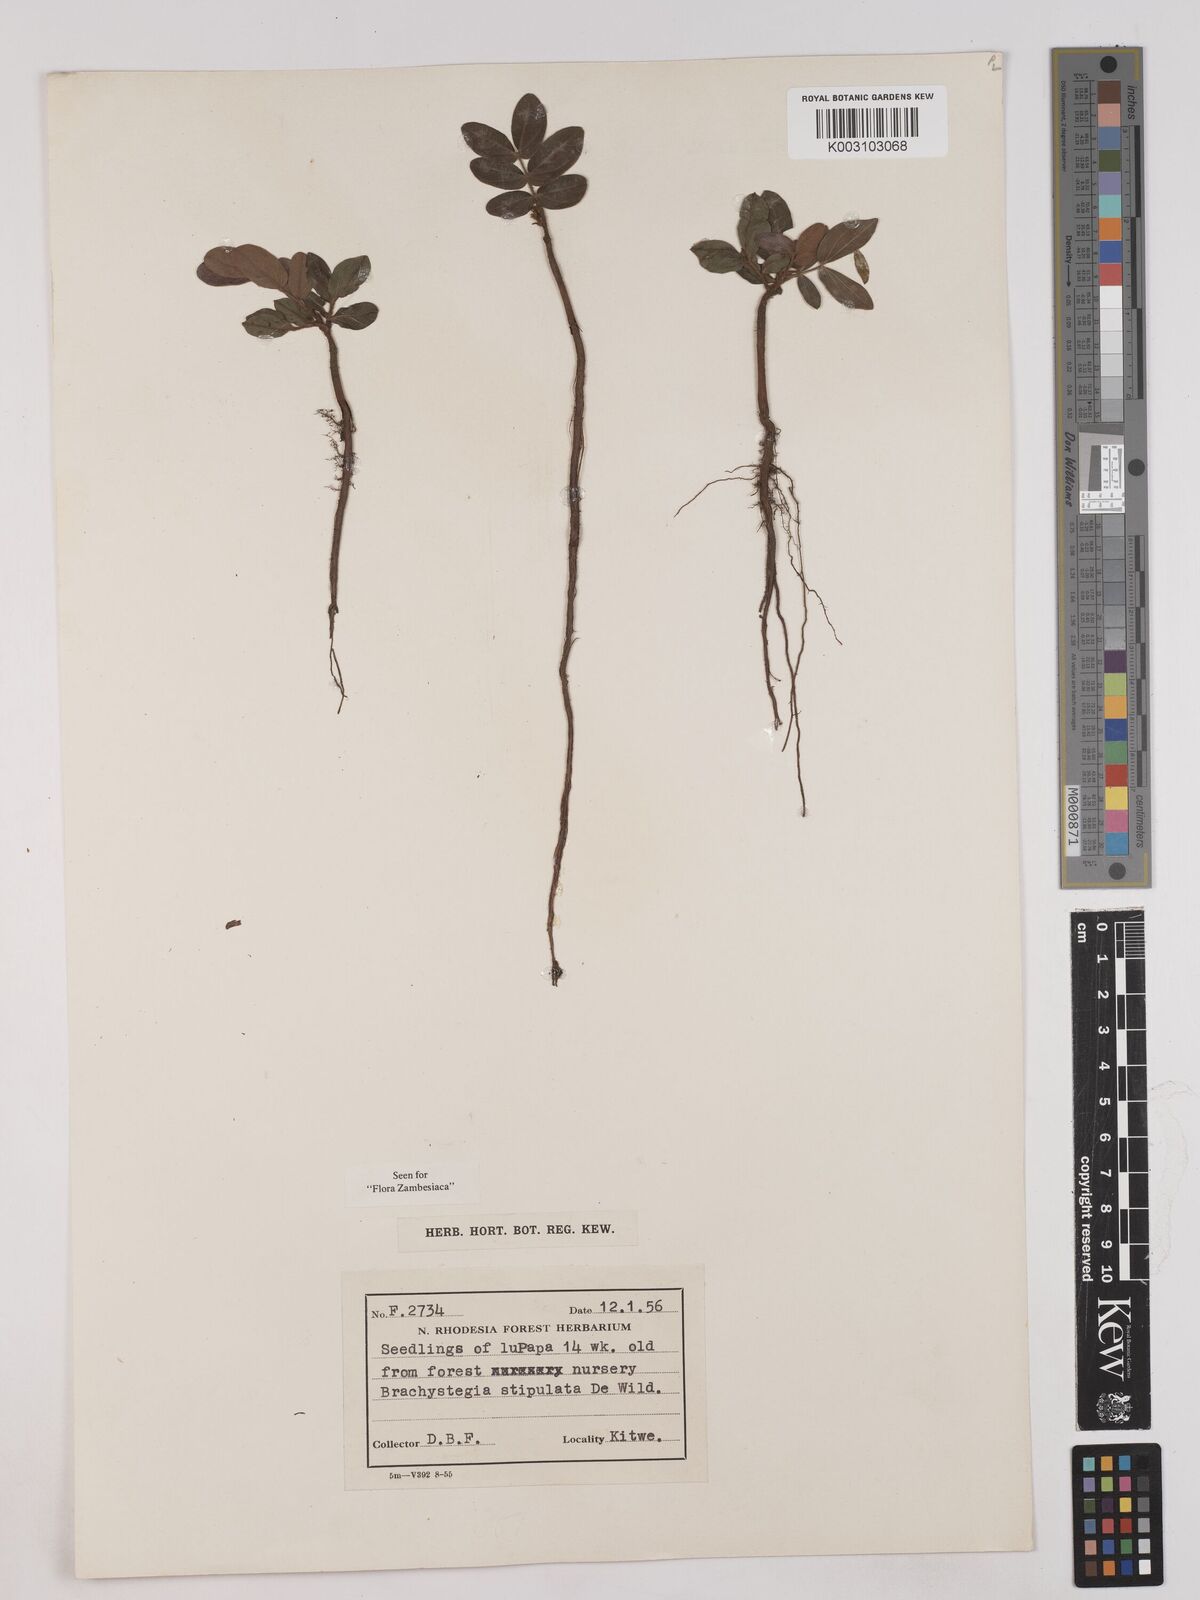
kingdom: Plantae
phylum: Tracheophyta
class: Magnoliopsida
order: Fabales
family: Fabaceae
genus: Brachystegia
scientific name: Brachystegia stipulata
